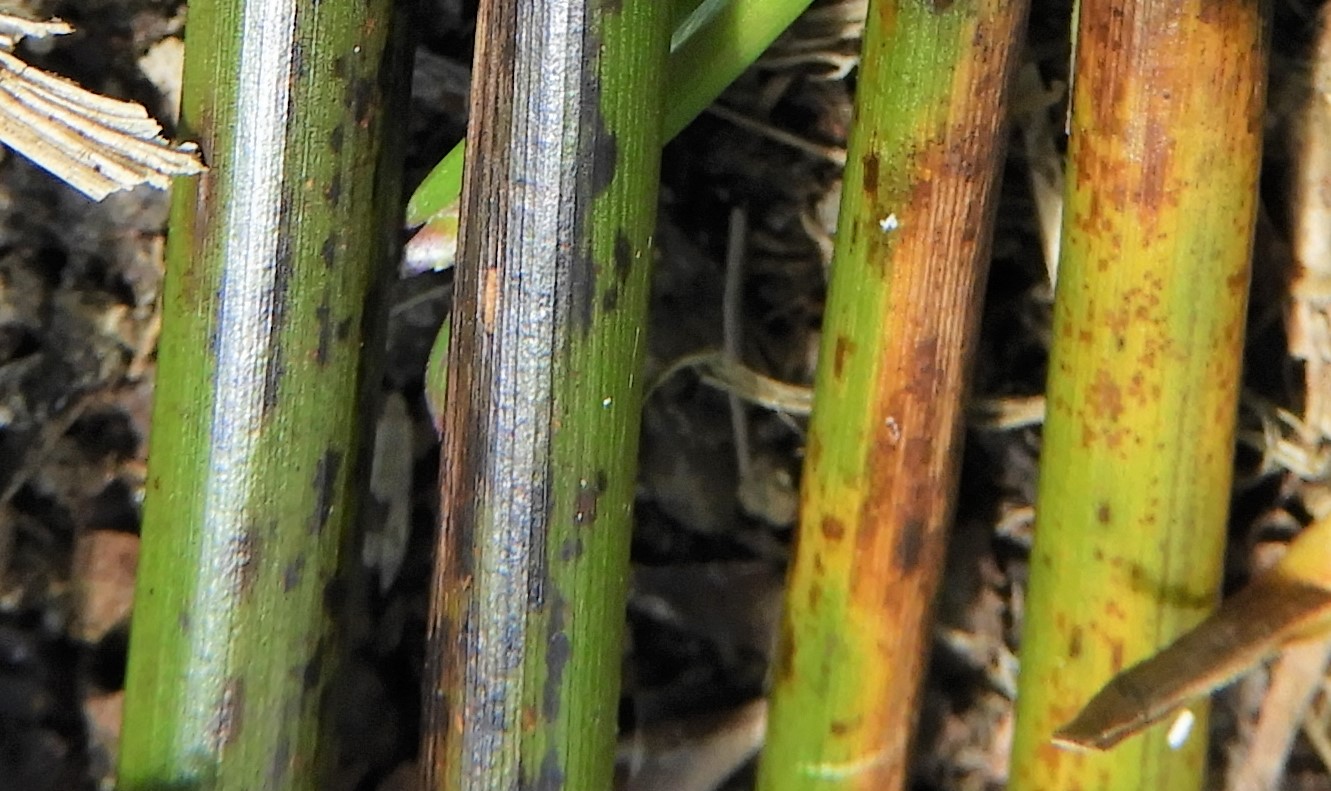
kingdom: Fungi
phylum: Ascomycota
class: Sordariomycetes
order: Phyllachorales
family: Phyllachoraceae
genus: Phyllachora
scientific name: Phyllachora junci
